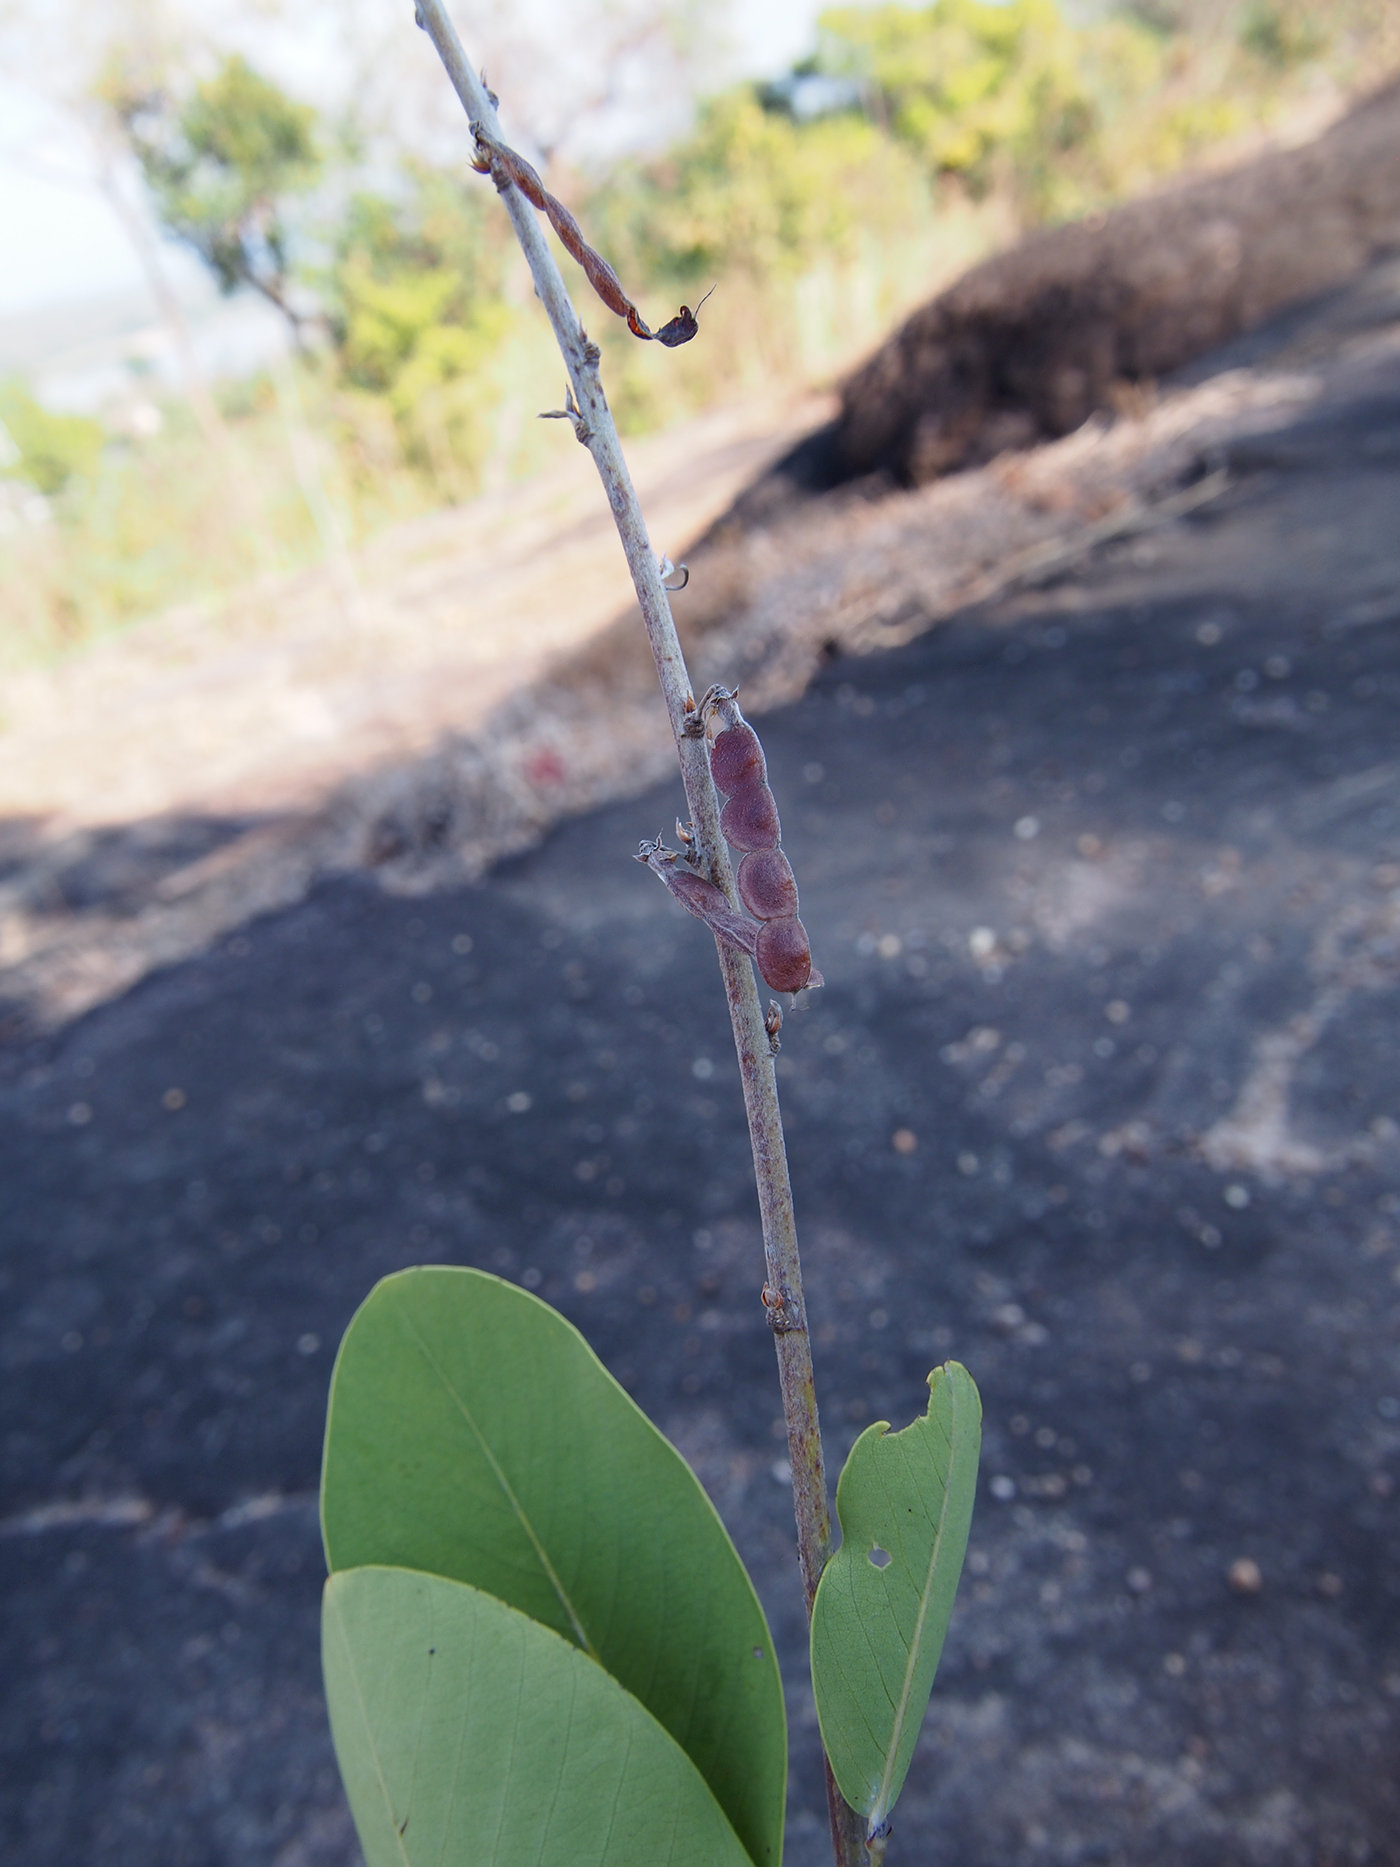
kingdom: Plantae
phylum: Tracheophyta
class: Magnoliopsida
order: Fabales
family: Fabaceae
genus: Akschindlium
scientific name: Akschindlium godefroyanum
